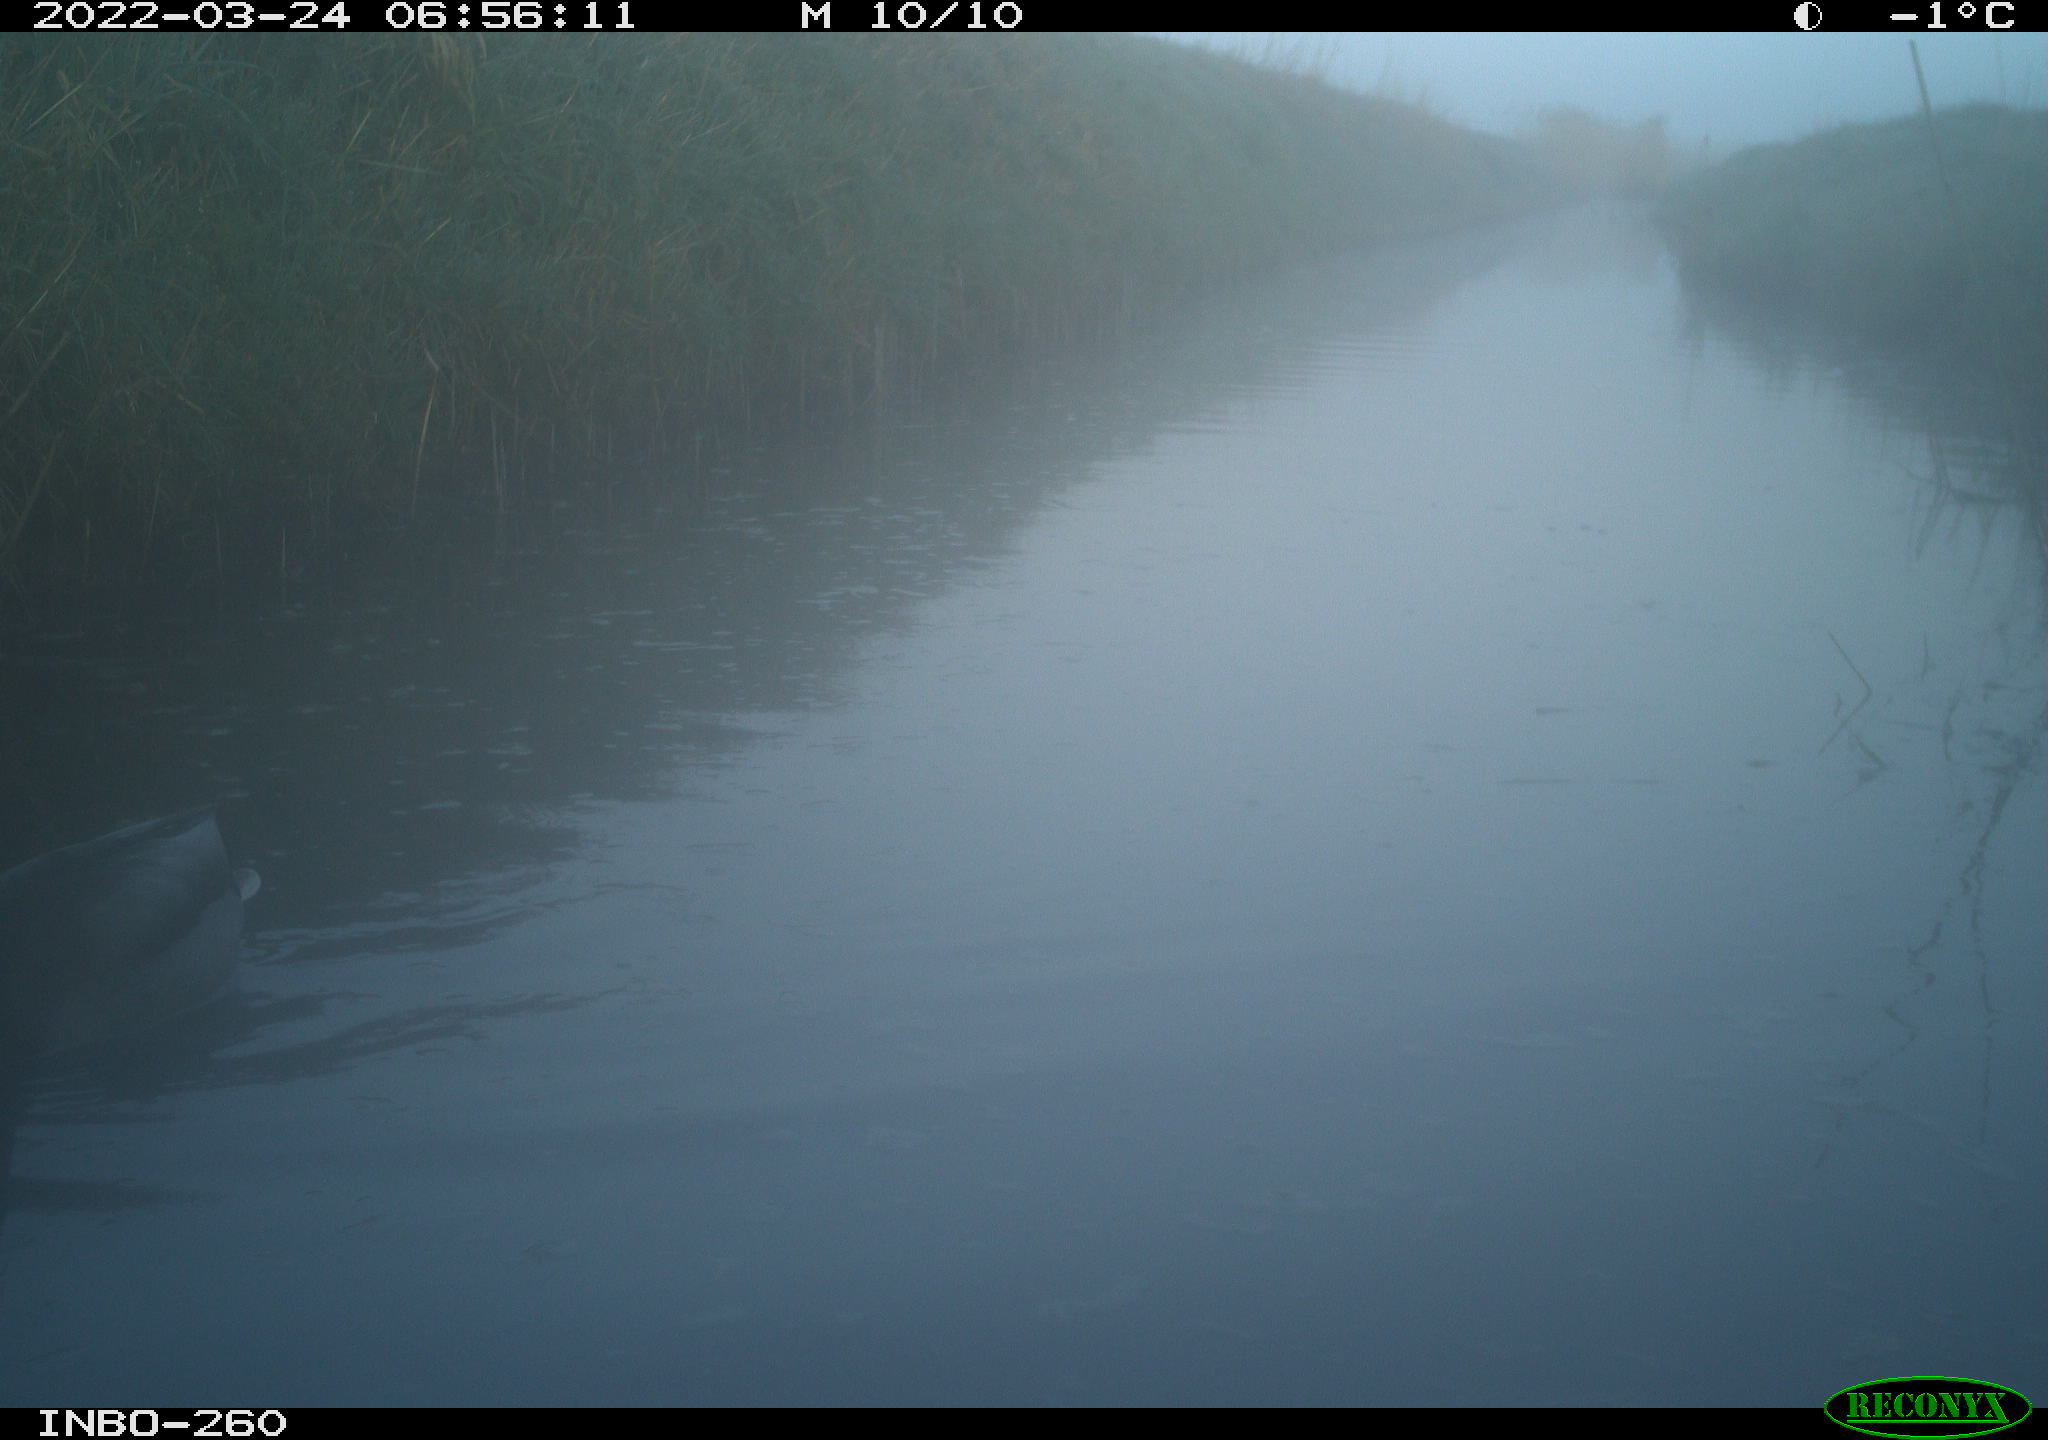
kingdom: Animalia
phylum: Chordata
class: Aves
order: Anseriformes
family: Anatidae
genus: Anas
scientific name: Anas platyrhynchos
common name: Mallard
